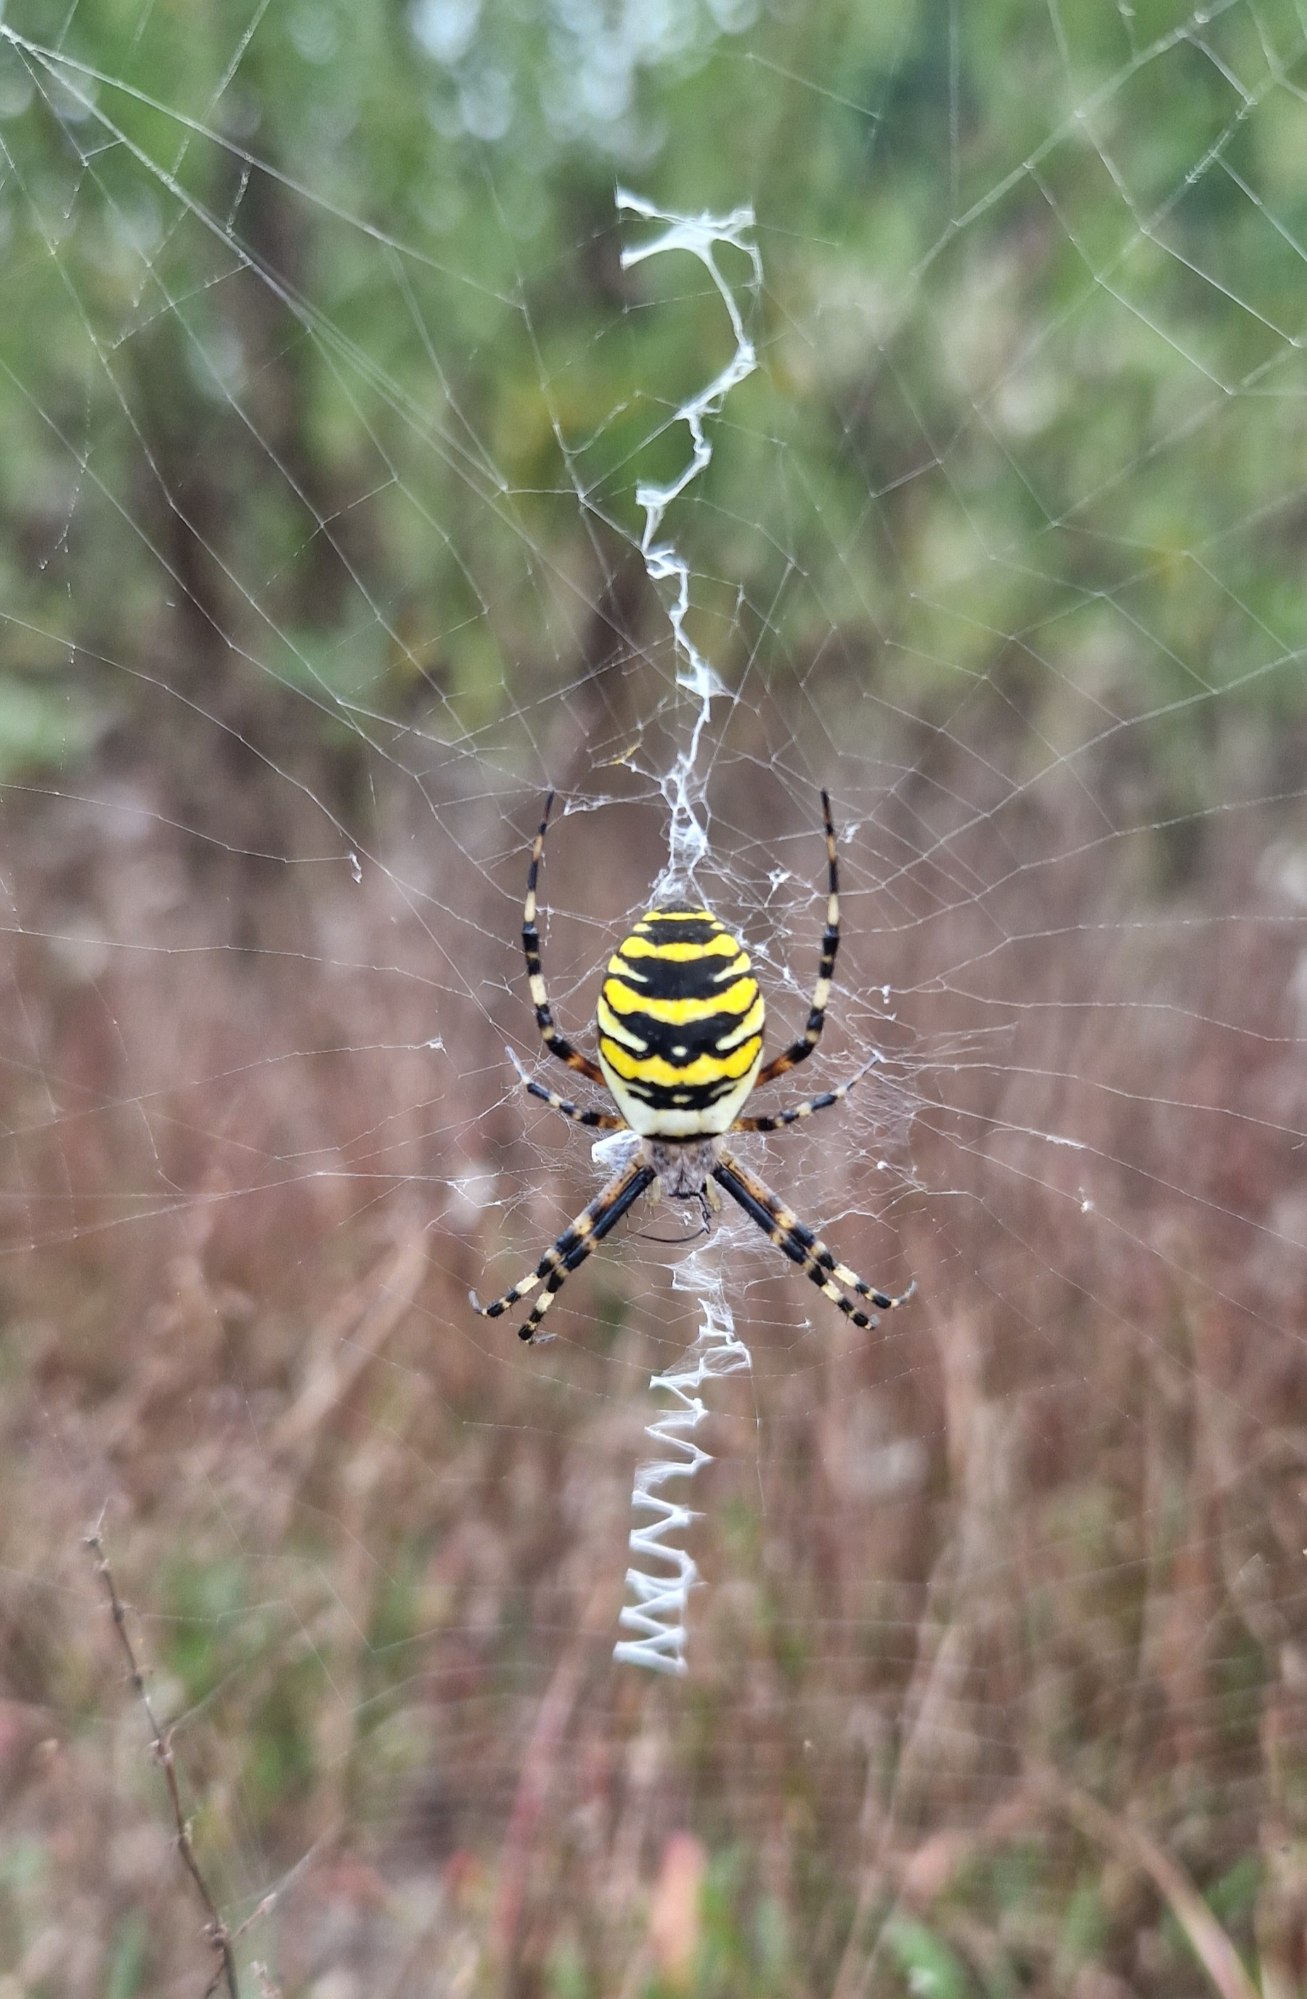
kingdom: Animalia
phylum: Arthropoda
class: Arachnida
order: Araneae
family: Araneidae
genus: Argiope
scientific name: Argiope bruennichi
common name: Hvepseedderkop
